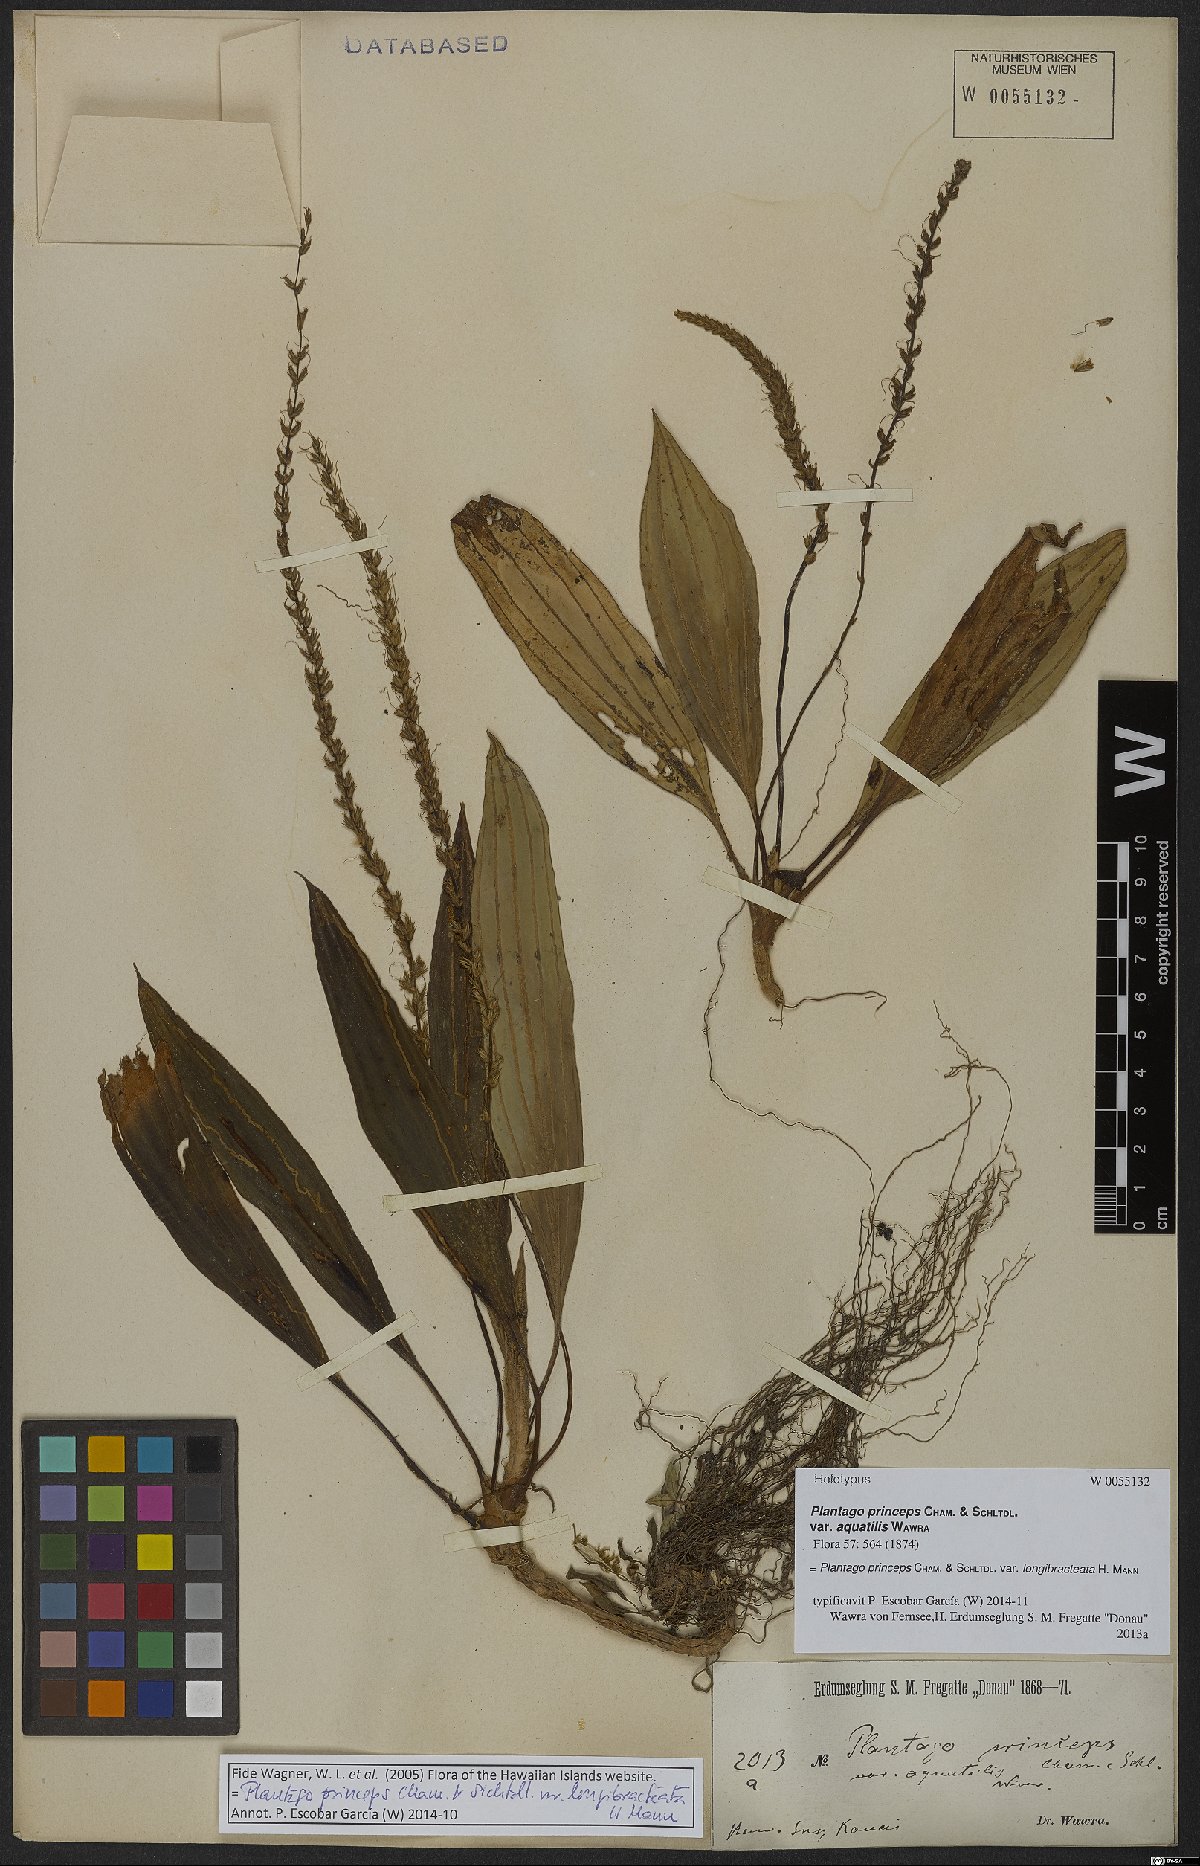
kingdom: Plantae
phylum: Tracheophyta
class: Magnoliopsida
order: Lamiales
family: Plantaginaceae
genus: Plantago
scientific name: Plantago princeps
